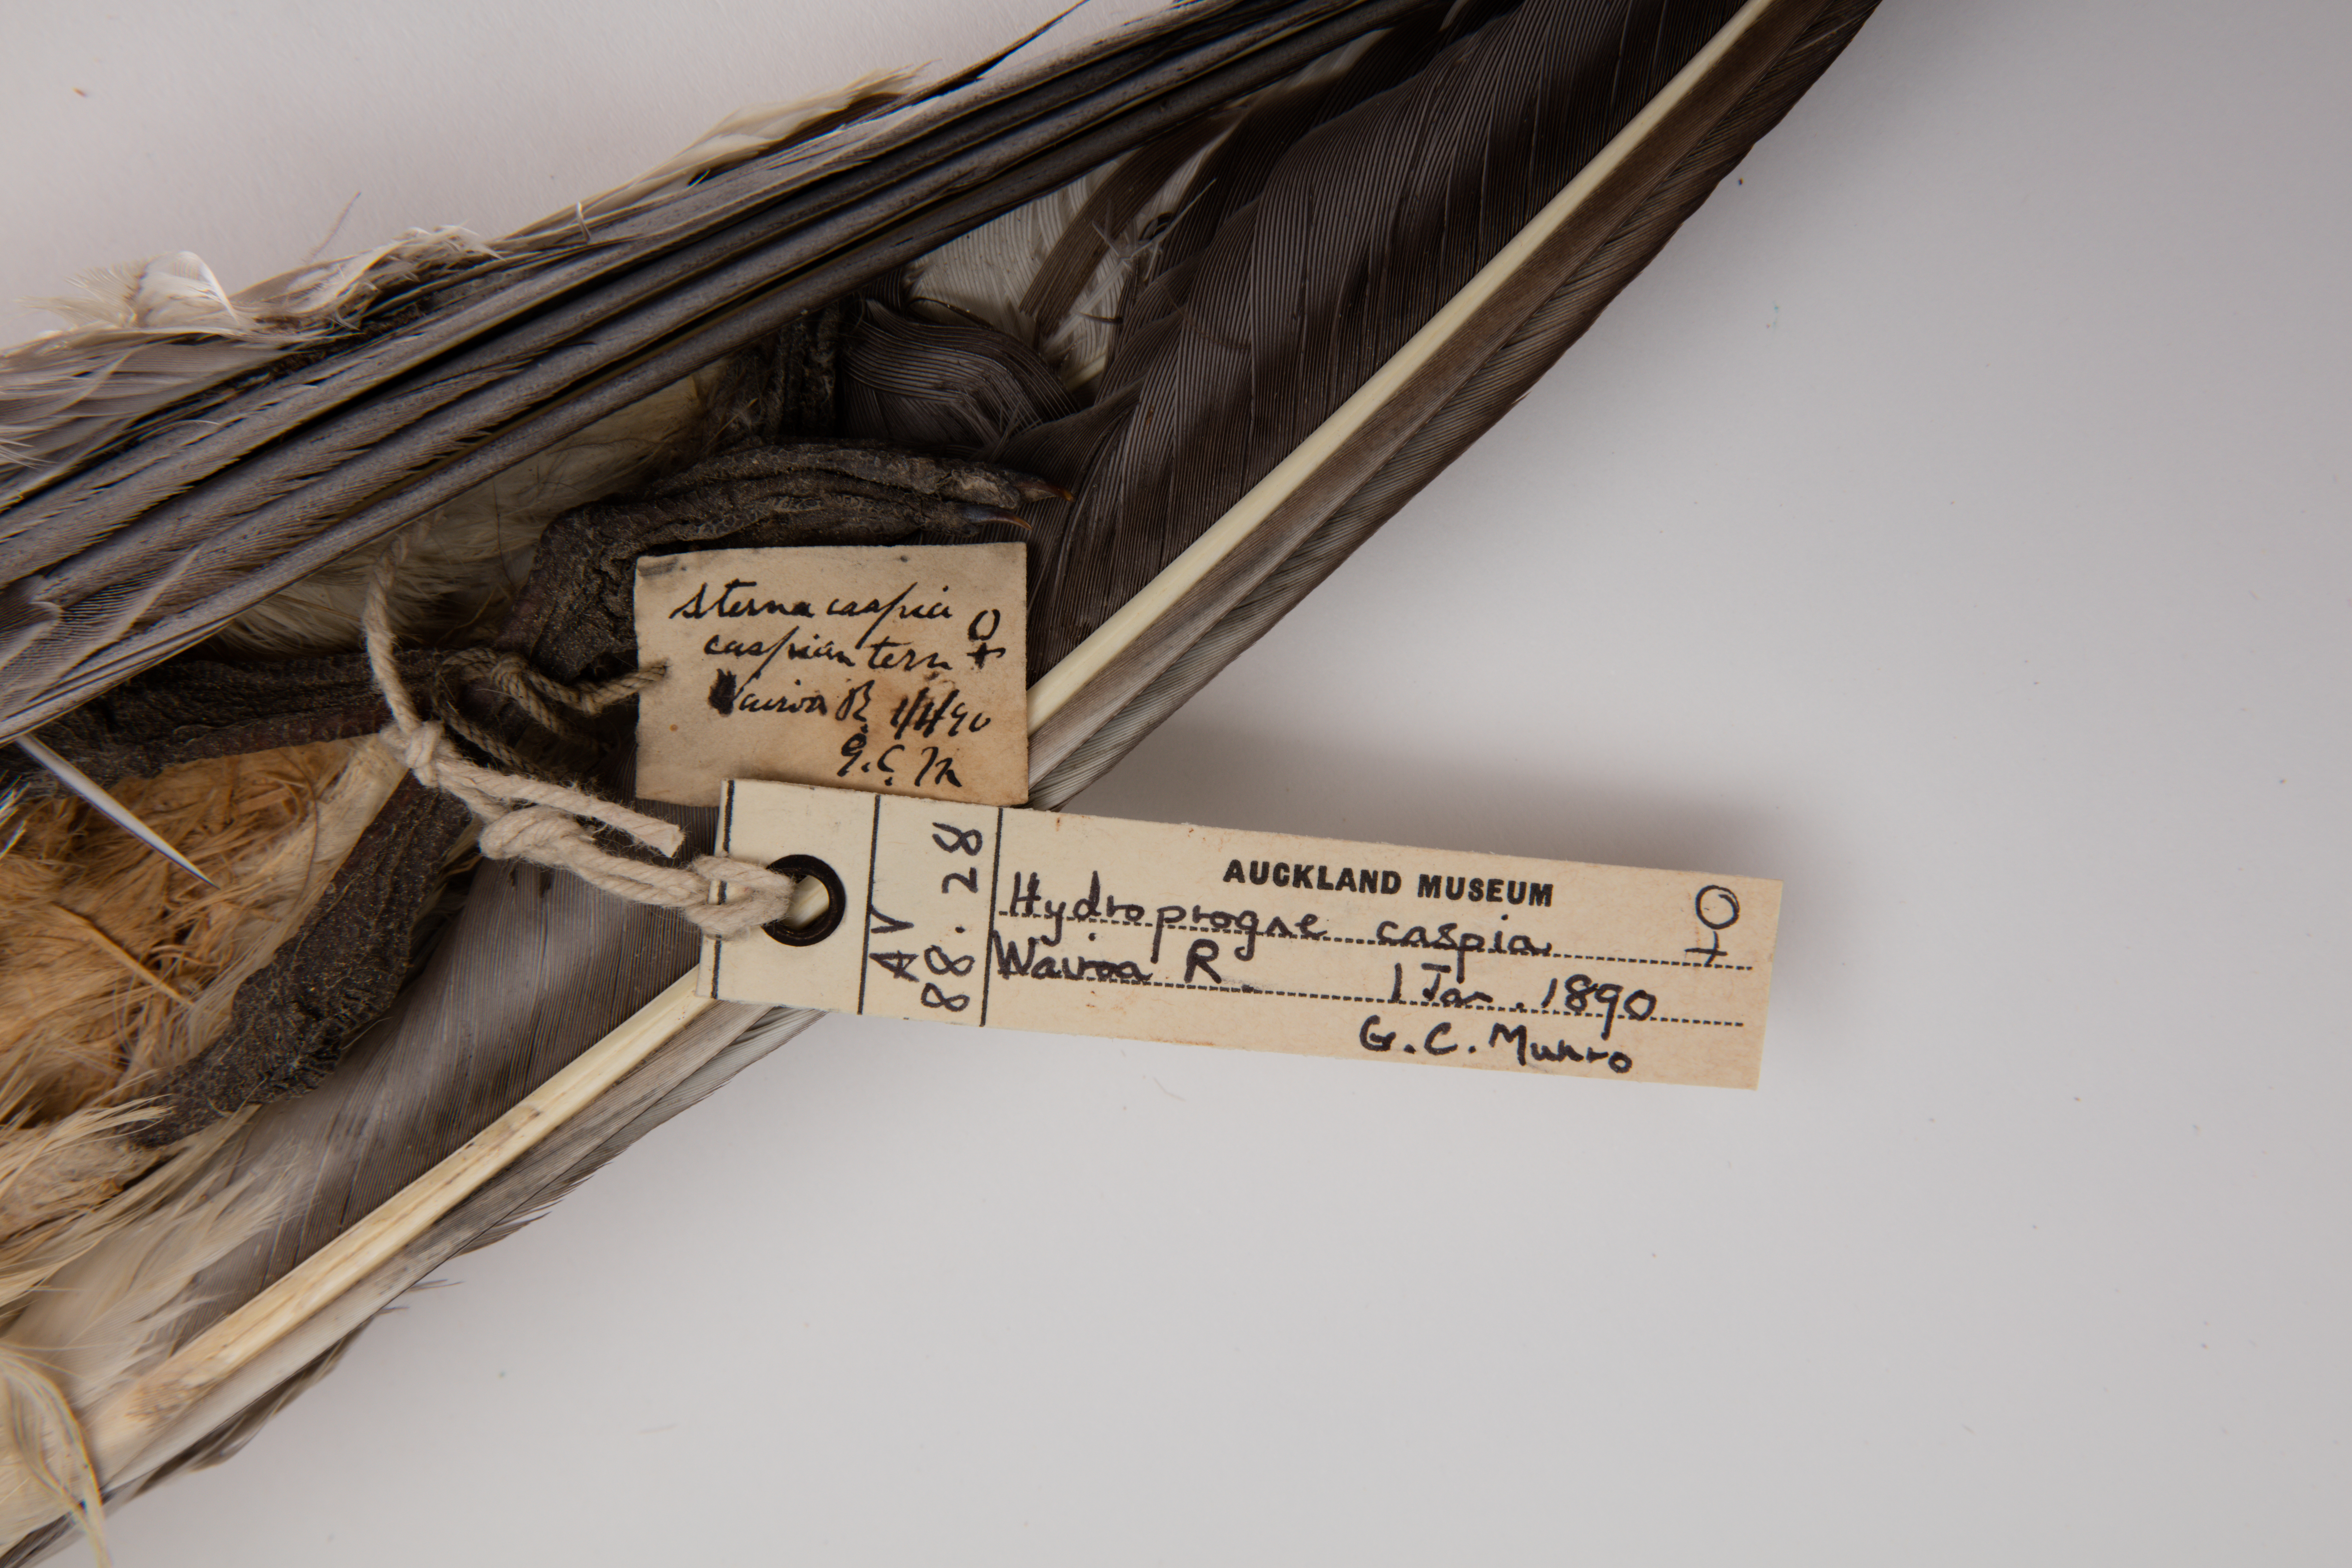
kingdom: Animalia
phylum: Chordata
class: Aves
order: Charadriiformes
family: Laridae
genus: Hydroprogne
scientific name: Hydroprogne caspia
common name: Caspian tern
